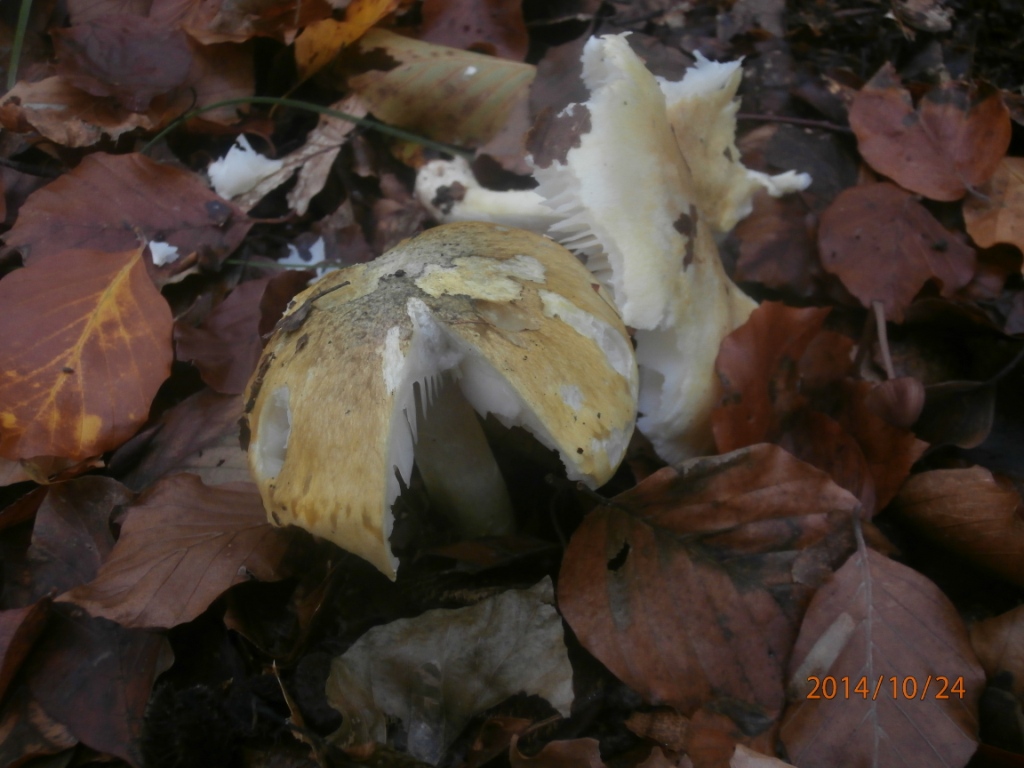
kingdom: Fungi
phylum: Basidiomycota
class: Agaricomycetes
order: Agaricales
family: Tricholomataceae
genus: Tricholoma
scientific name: Tricholoma sejunctum
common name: grøngul ridderhat
